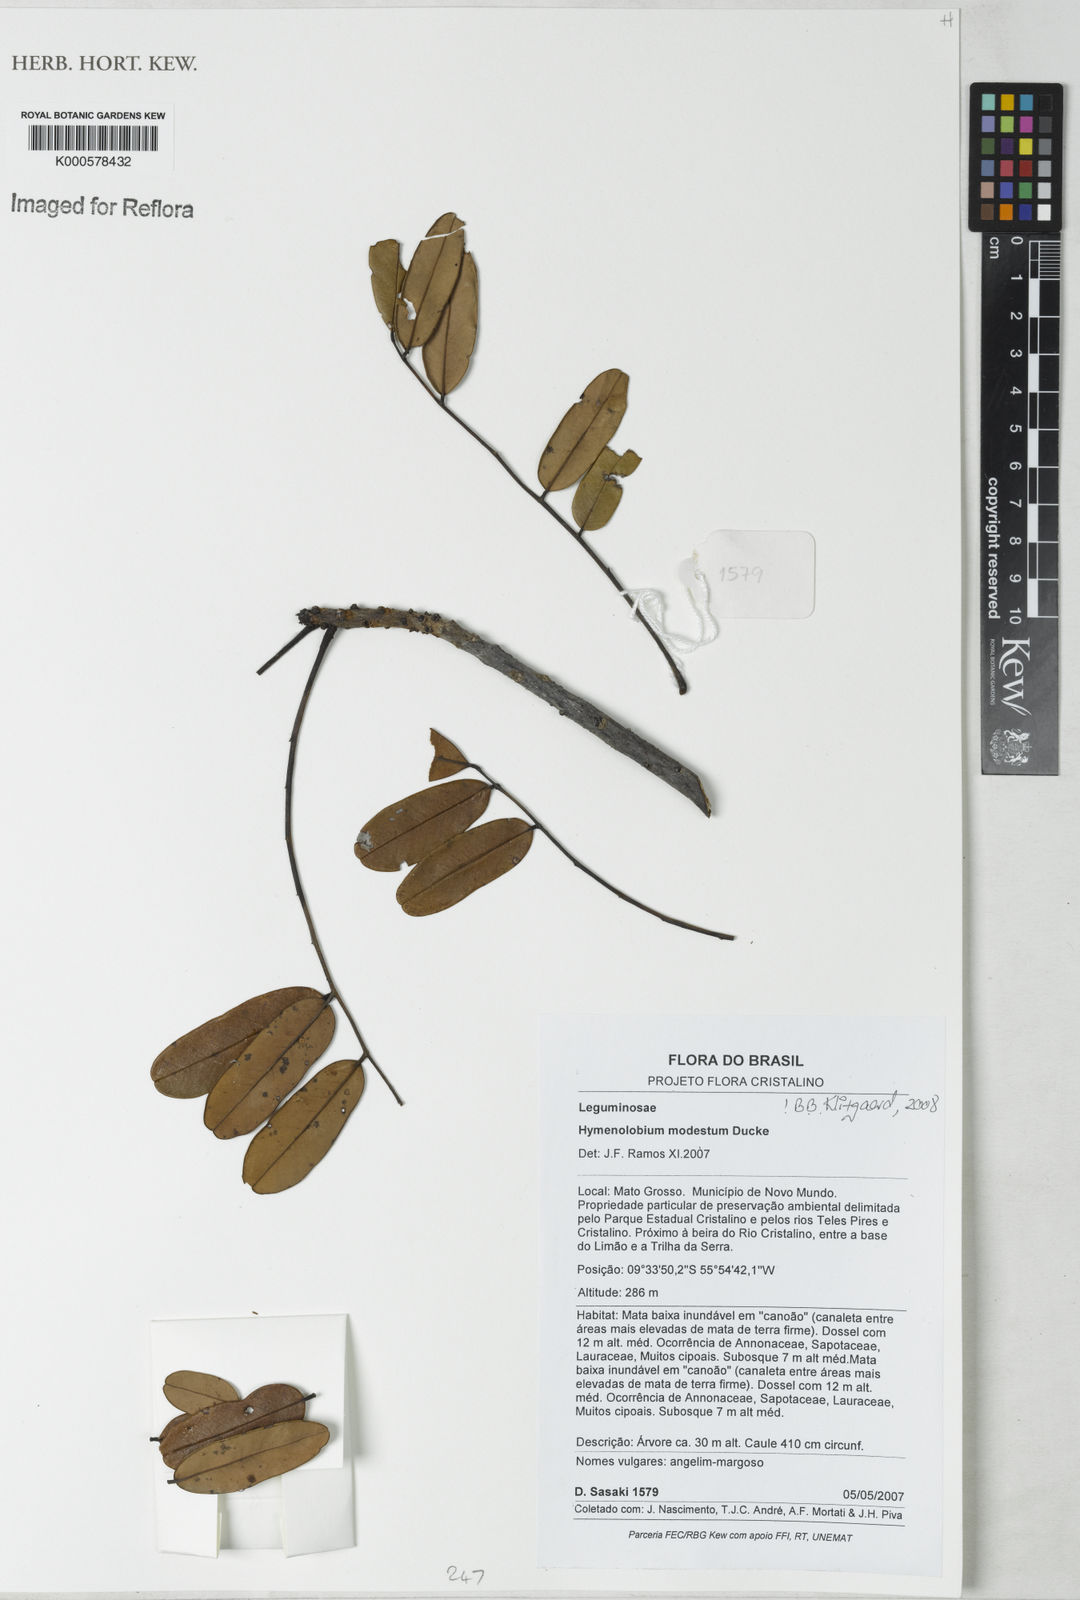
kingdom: Plantae
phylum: Tracheophyta
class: Magnoliopsida
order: Fabales
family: Fabaceae
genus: Hymenolobium
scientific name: Hymenolobium modestum
